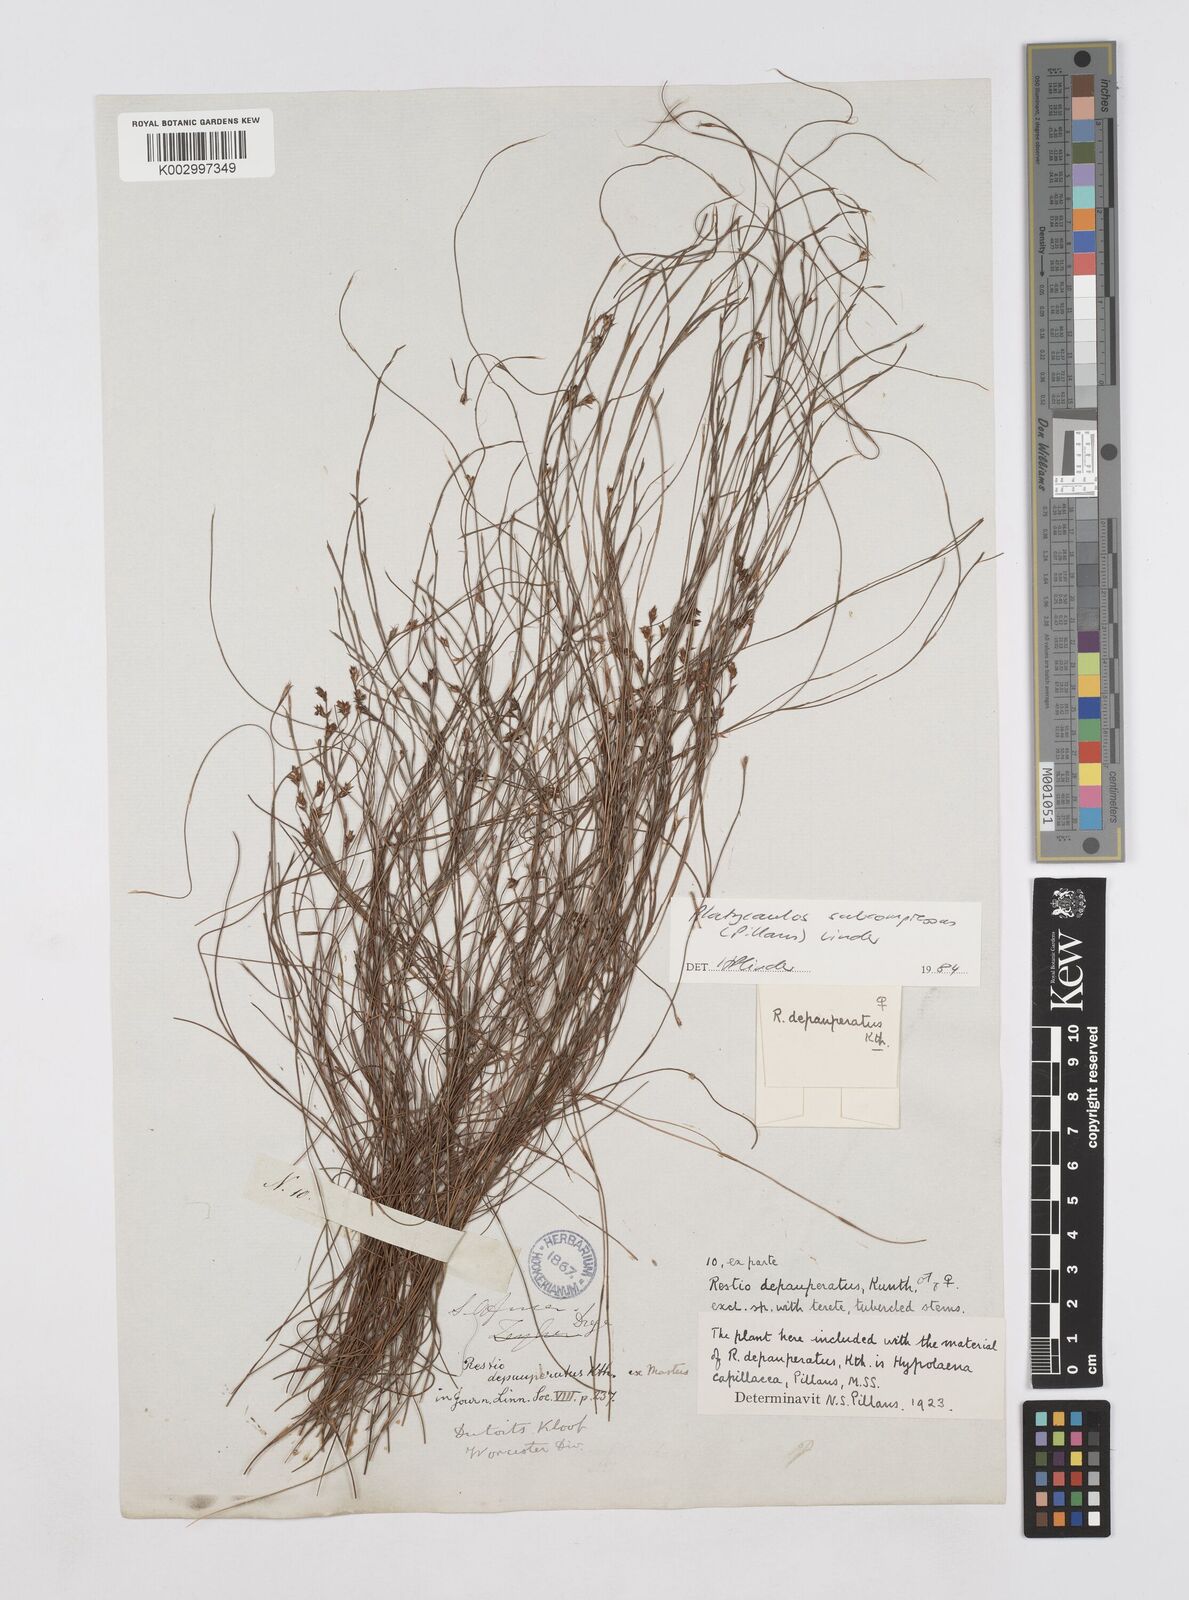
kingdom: Plantae
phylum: Tracheophyta
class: Liliopsida
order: Poales
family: Restionaceae
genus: Platycaulos
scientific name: Platycaulos subcompressus
